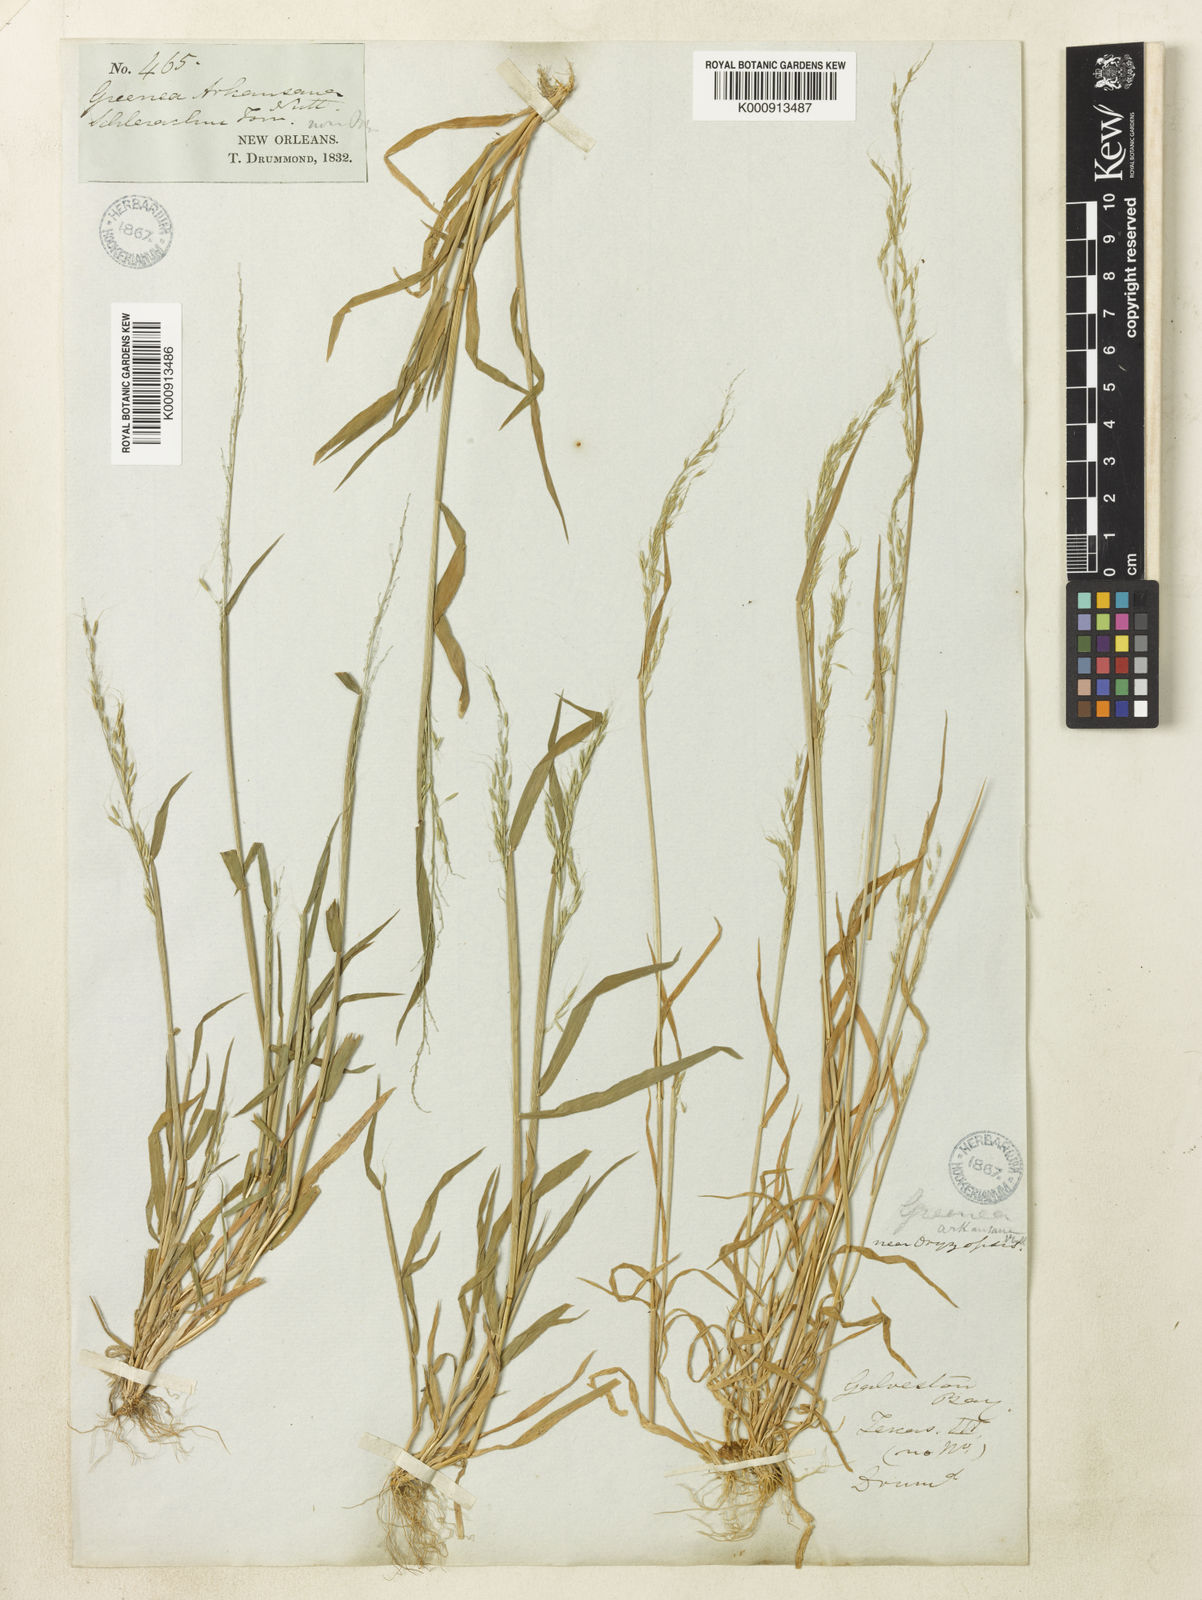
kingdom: Plantae
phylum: Tracheophyta
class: Liliopsida
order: Poales
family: Poaceae
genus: Limnodea
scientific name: Limnodea arkansana
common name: Ozark-grass
